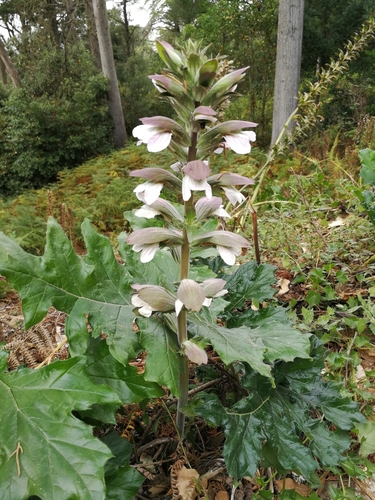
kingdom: Plantae
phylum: Tracheophyta
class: Magnoliopsida
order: Lamiales
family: Acanthaceae
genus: Acanthus
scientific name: Acanthus mollis
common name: Bear's-breech
